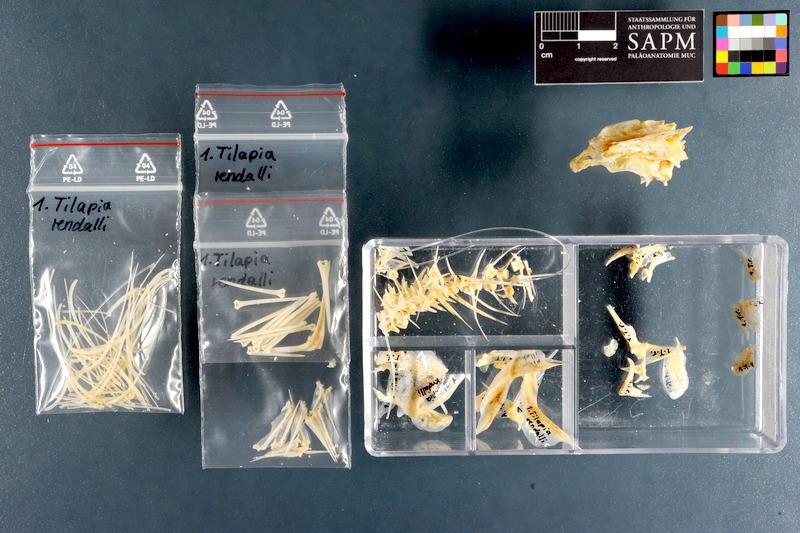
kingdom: Animalia
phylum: Chordata
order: Perciformes
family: Cichlidae
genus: Coptodon
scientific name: Coptodon rendalli
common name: Redbreast tilapia
